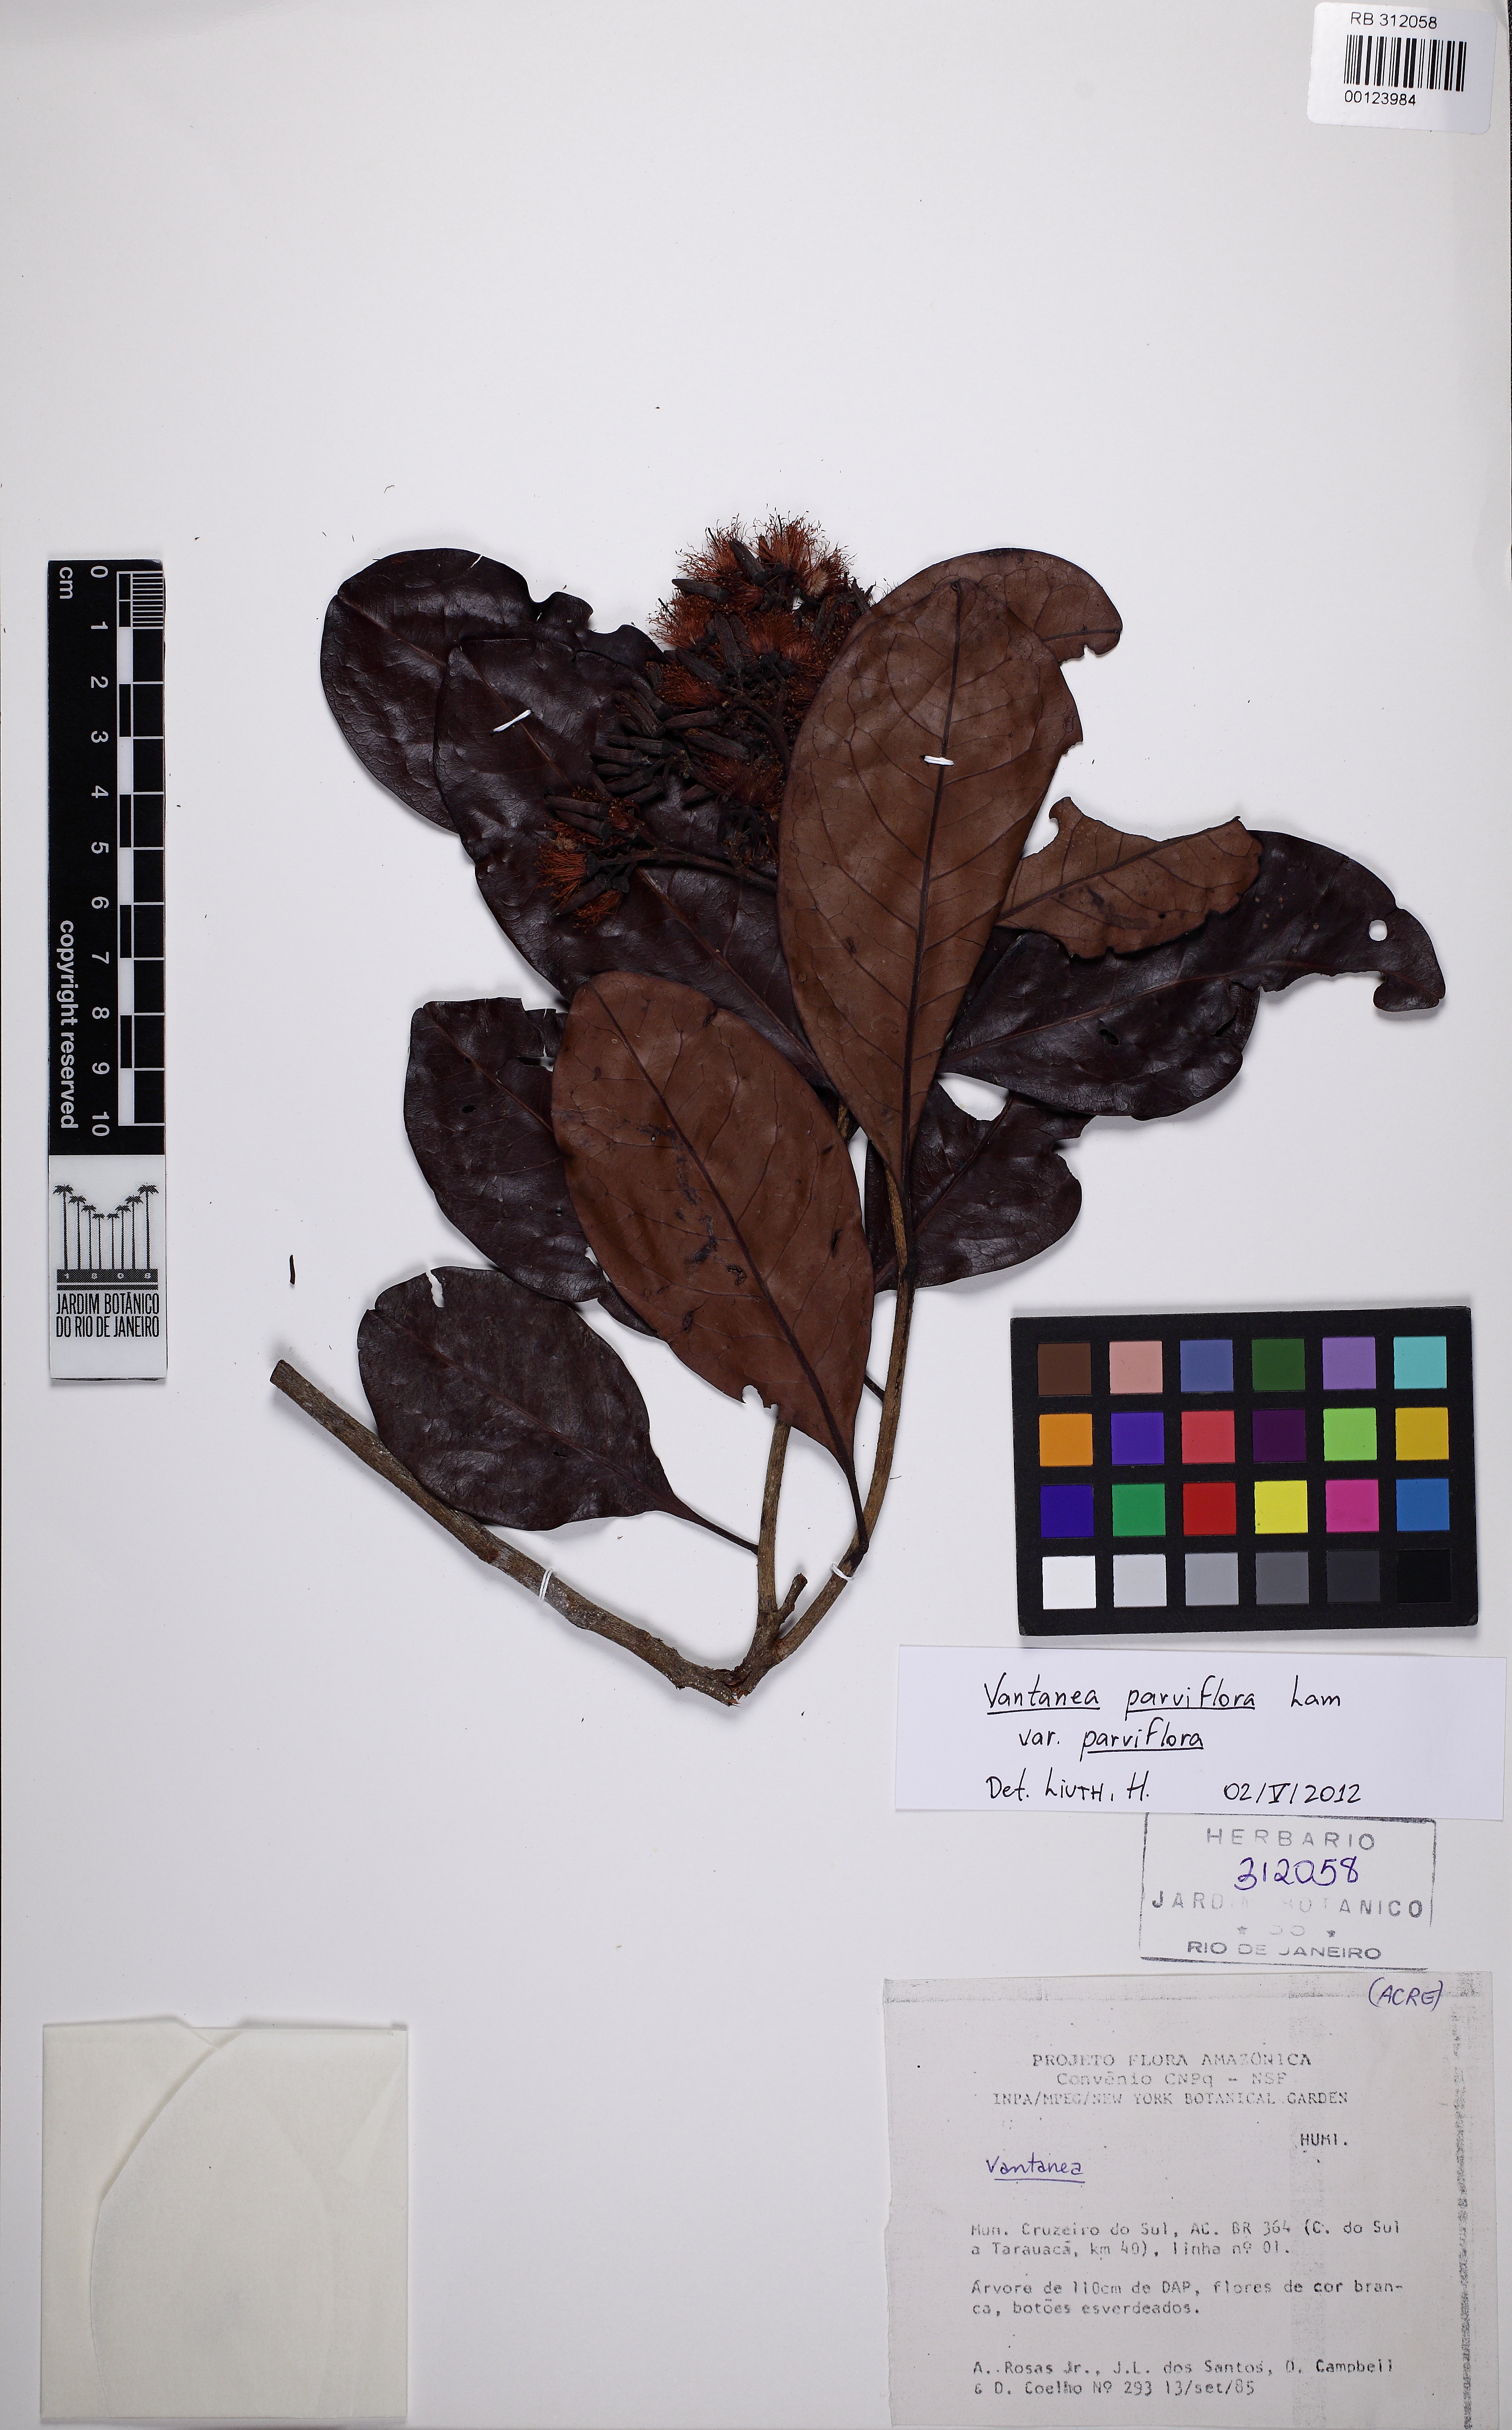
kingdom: Plantae
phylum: Tracheophyta
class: Magnoliopsida
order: Malpighiales
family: Humiriaceae
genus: Vantanea
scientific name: Vantanea parviflora
